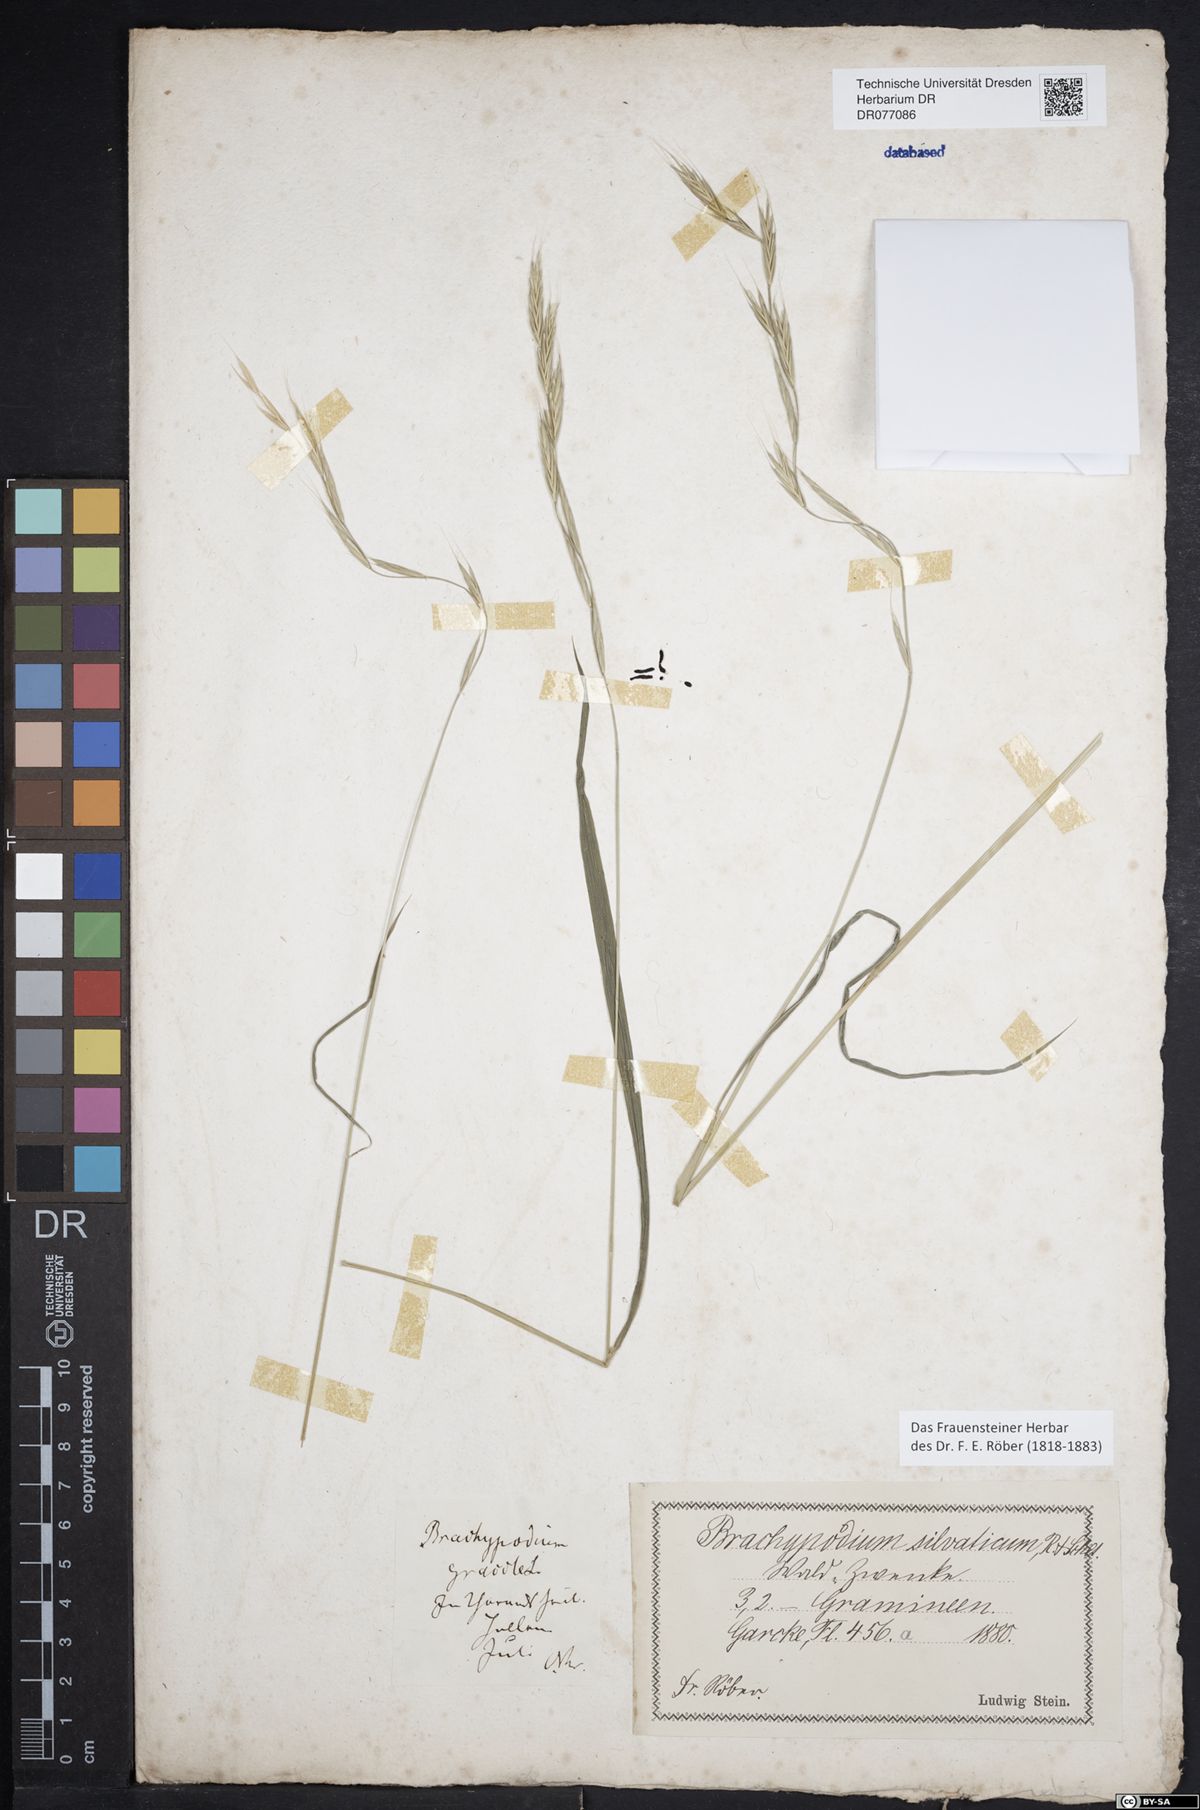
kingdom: Plantae
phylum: Tracheophyta
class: Liliopsida
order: Poales
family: Poaceae
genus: Brachypodium
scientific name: Brachypodium sylvaticum
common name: False-brome
